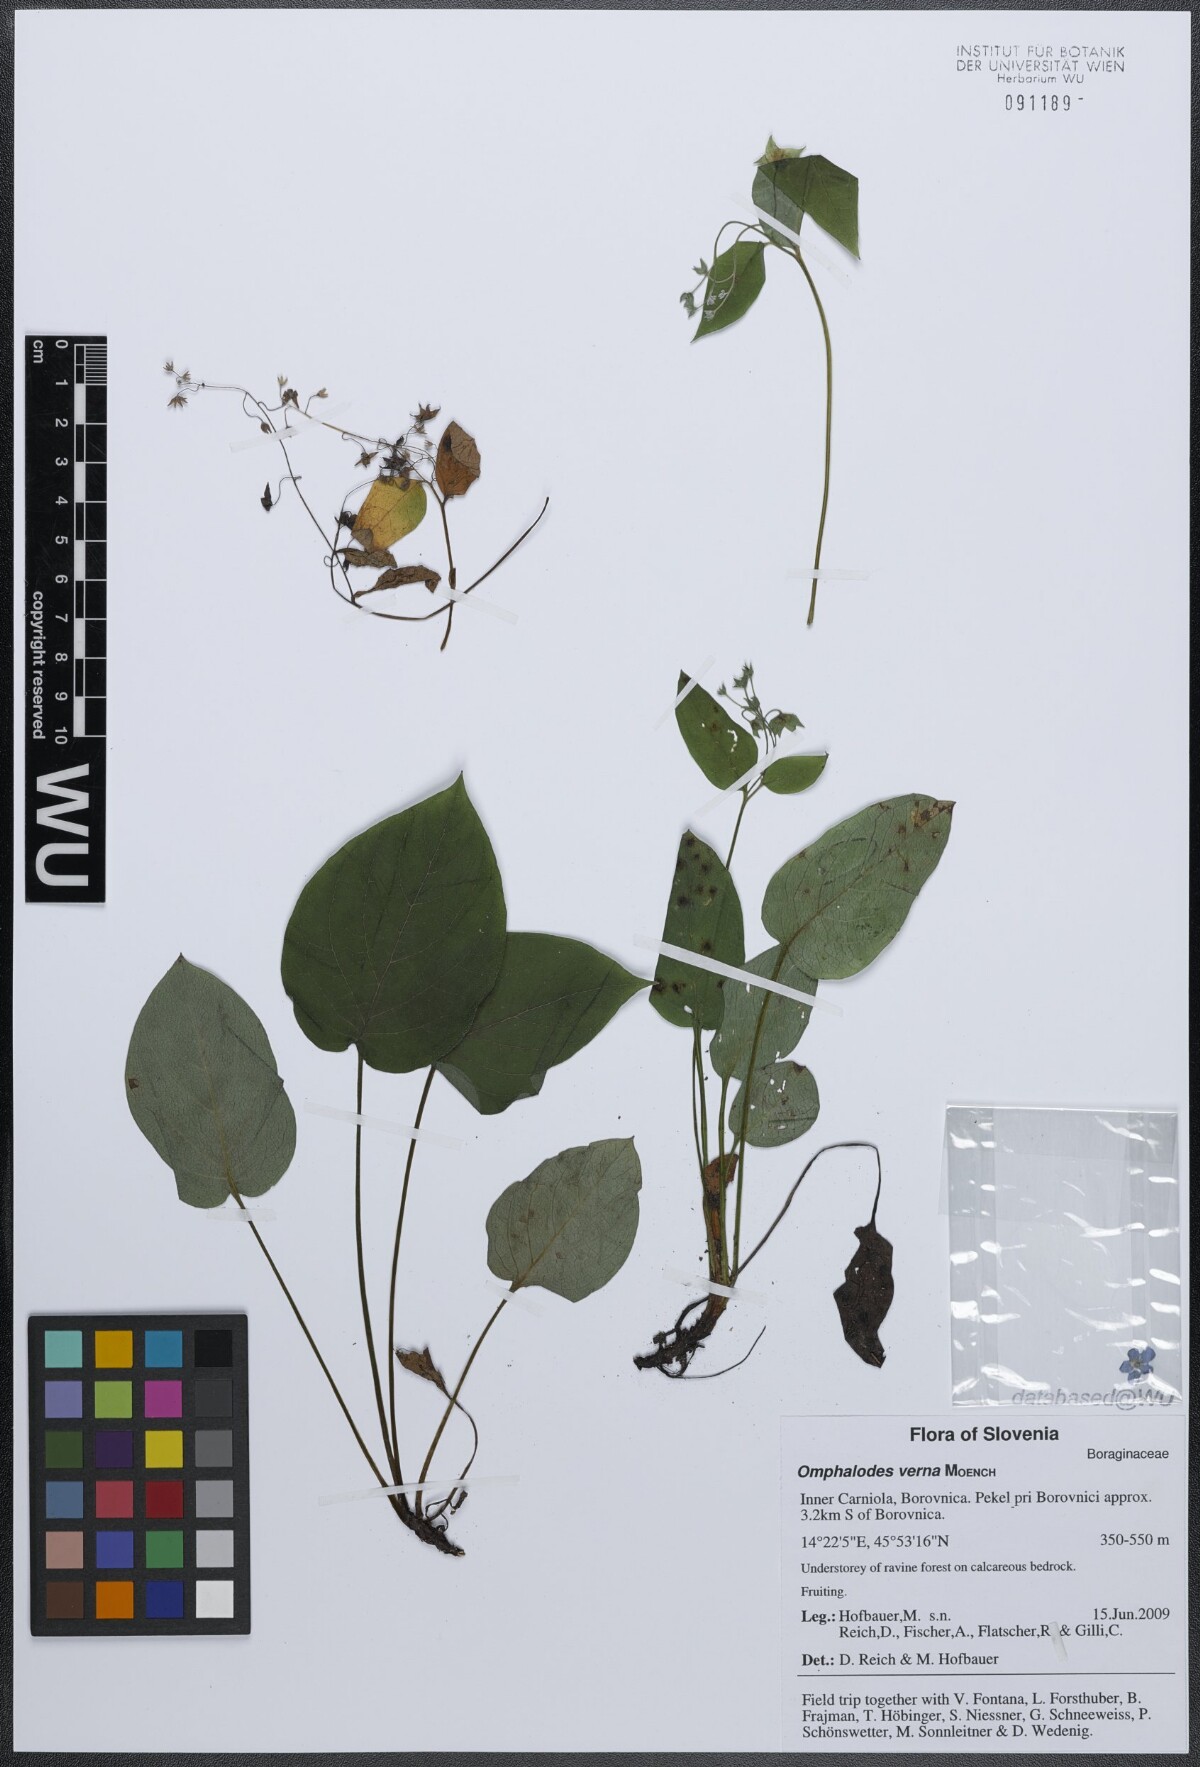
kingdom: Plantae
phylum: Tracheophyta
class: Magnoliopsida
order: Boraginales
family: Boraginaceae
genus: Omphalodes
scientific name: Omphalodes verna
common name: Blue-eyed-mary
